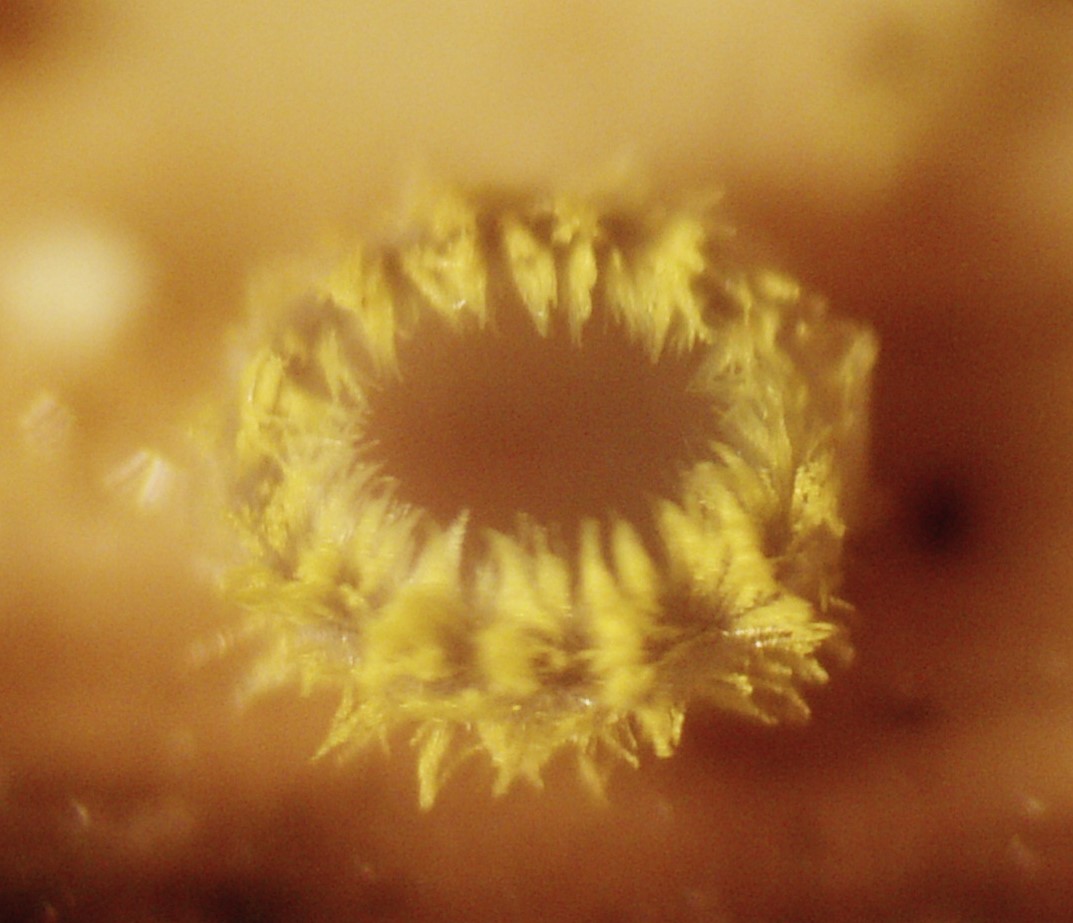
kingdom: Fungi
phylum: Ascomycota
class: Leotiomycetes
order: Helotiales
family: Lachnaceae
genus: Trichopeziza
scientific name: Trichopeziza
